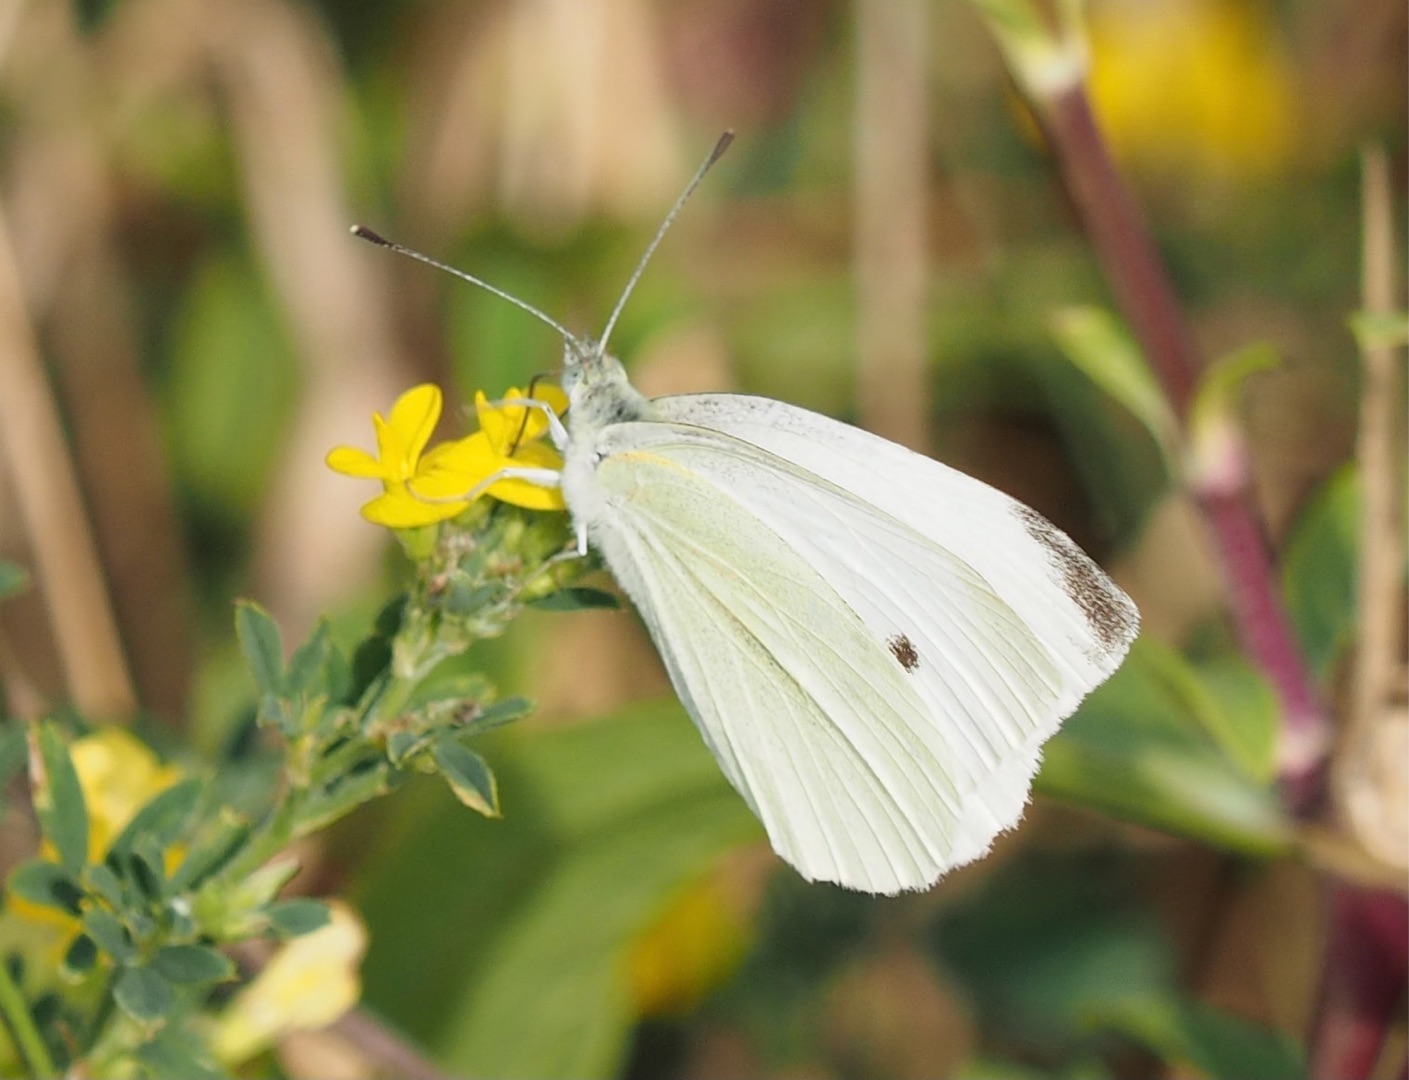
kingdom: Animalia
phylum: Arthropoda
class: Insecta
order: Lepidoptera
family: Pieridae
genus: Pieris
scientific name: Pieris rapae
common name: Lille kålsommerfugl
